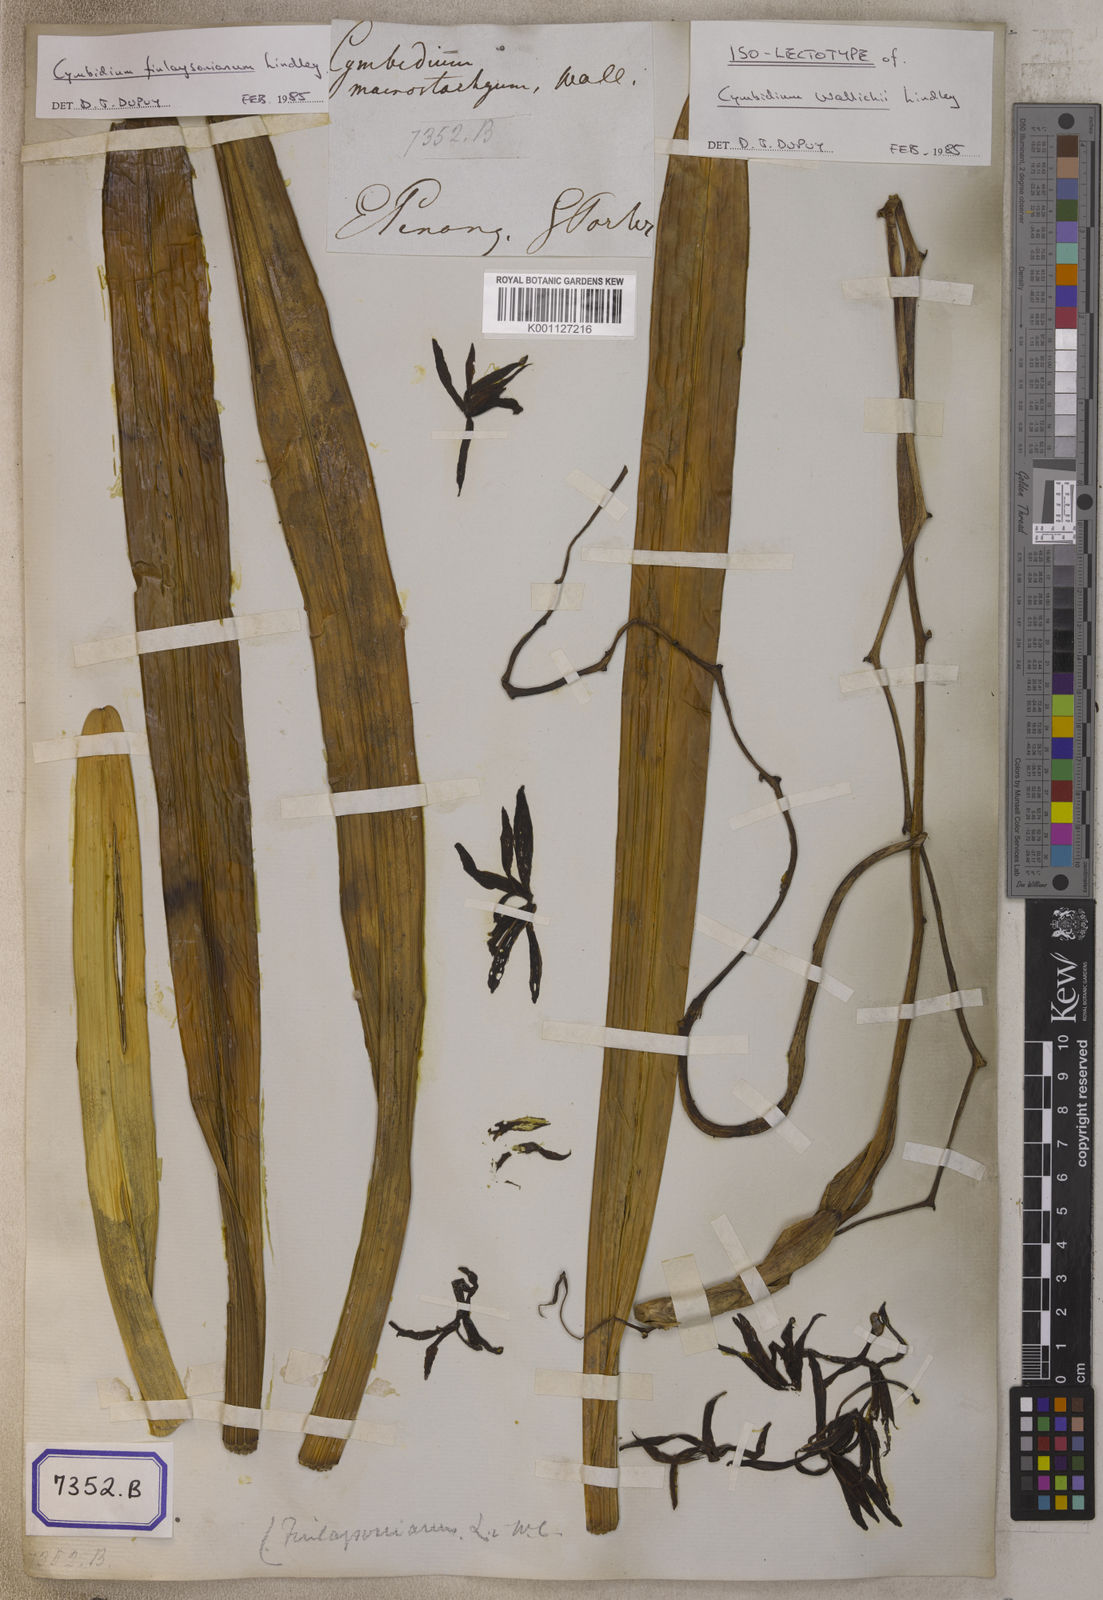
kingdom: Plantae
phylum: Tracheophyta
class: Liliopsida
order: Asparagales
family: Orchidaceae
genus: Cymbidium
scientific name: Cymbidium
